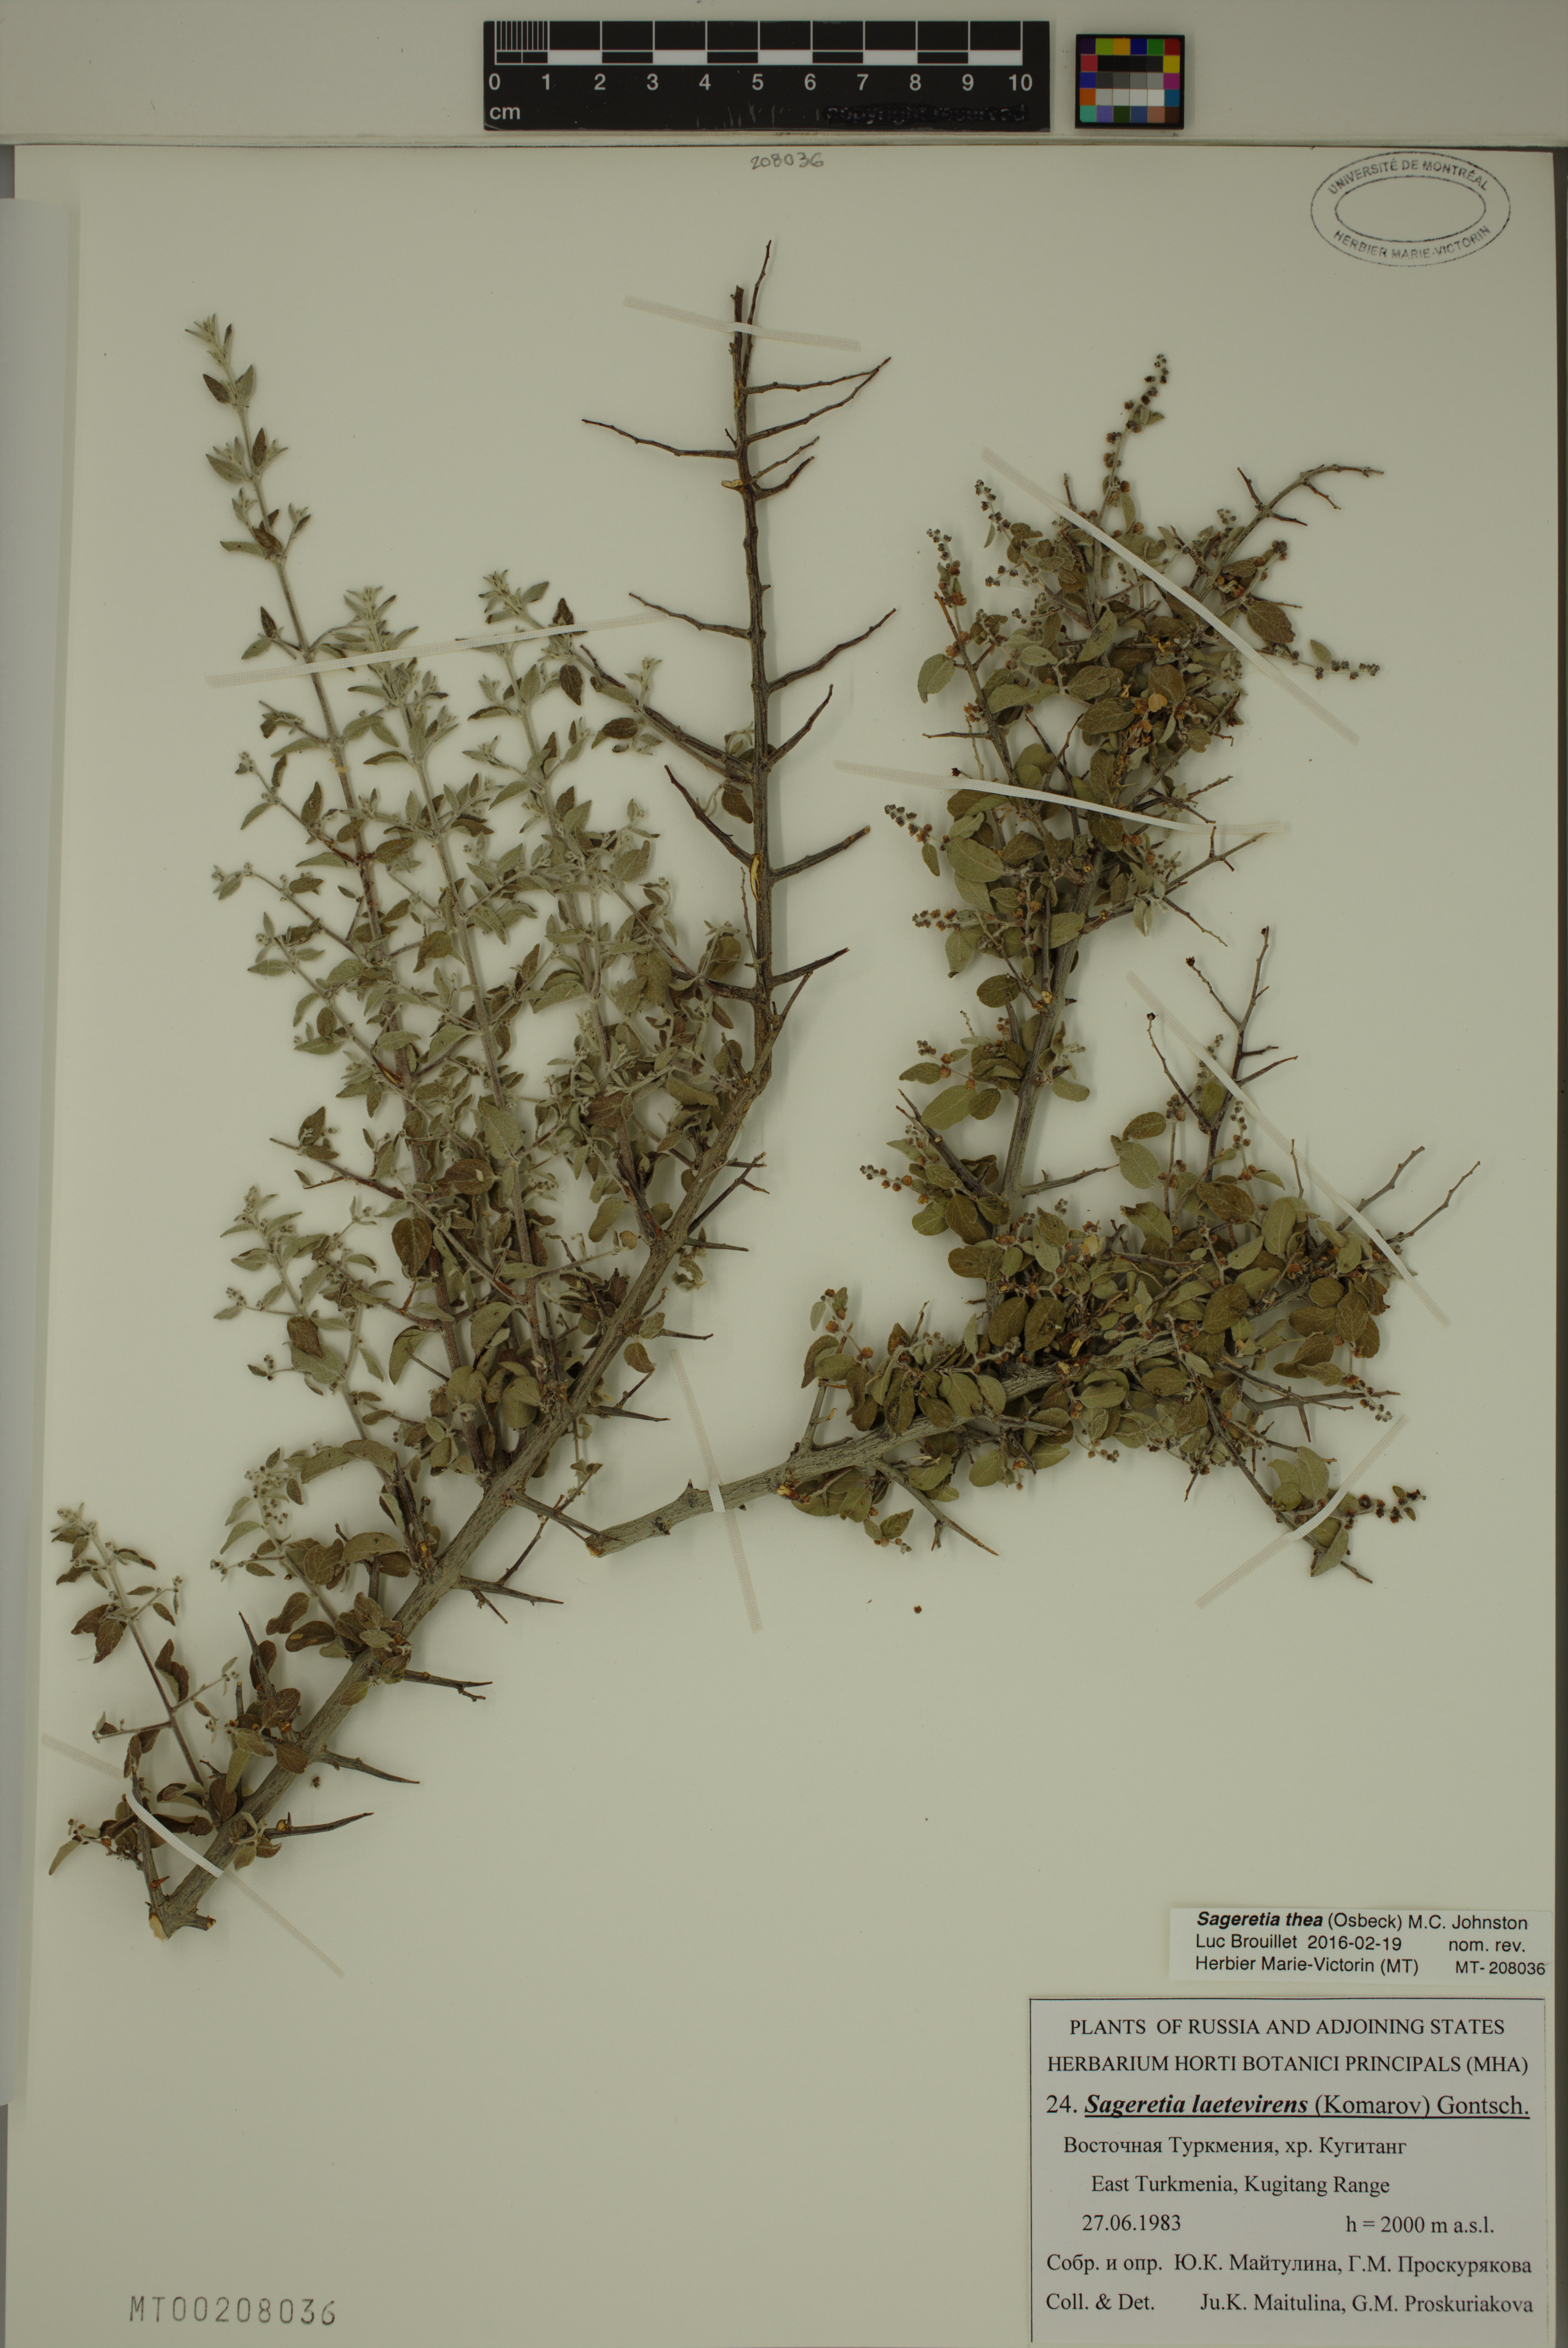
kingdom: Plantae
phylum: Tracheophyta
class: Magnoliopsida
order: Rosales
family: Rhamnaceae
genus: Sageretia
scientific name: Sageretia thea
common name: Pauper's-tea
